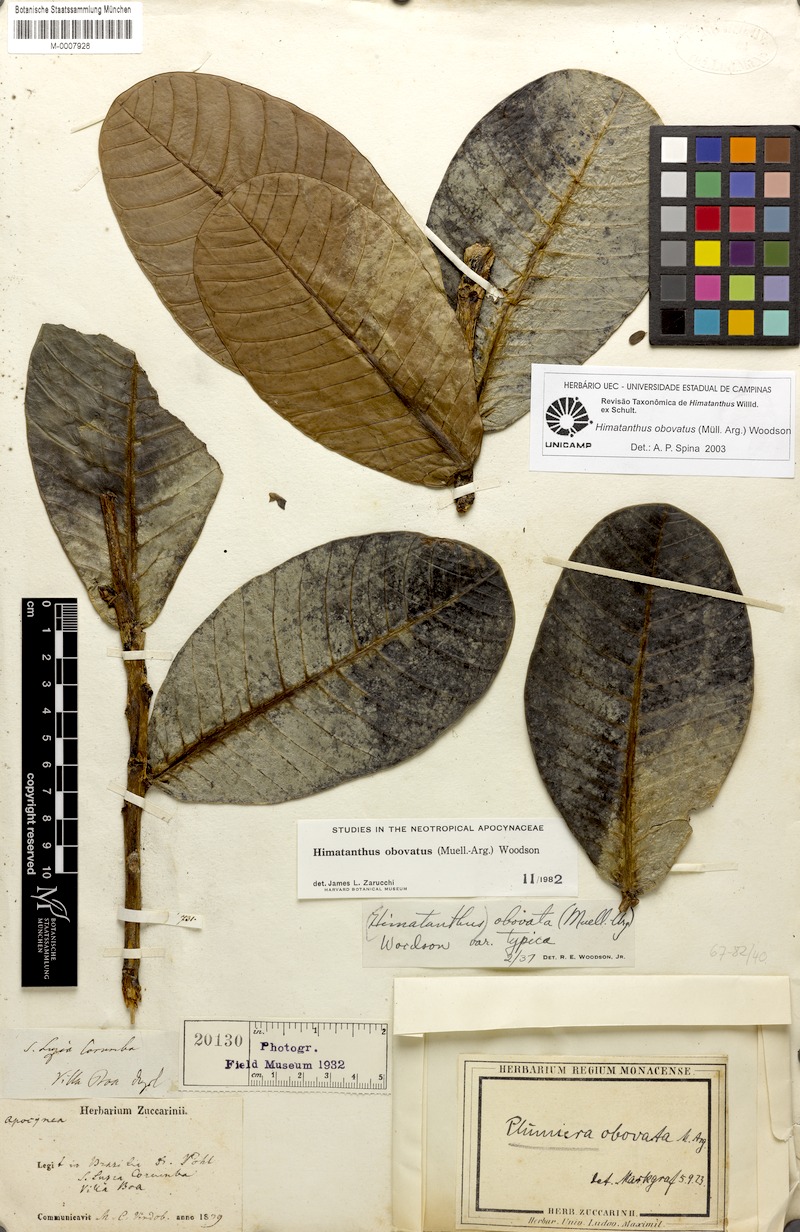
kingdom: Plantae
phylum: Tracheophyta
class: Magnoliopsida
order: Gentianales
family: Apocynaceae
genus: Himatanthus
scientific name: Himatanthus obovatus
